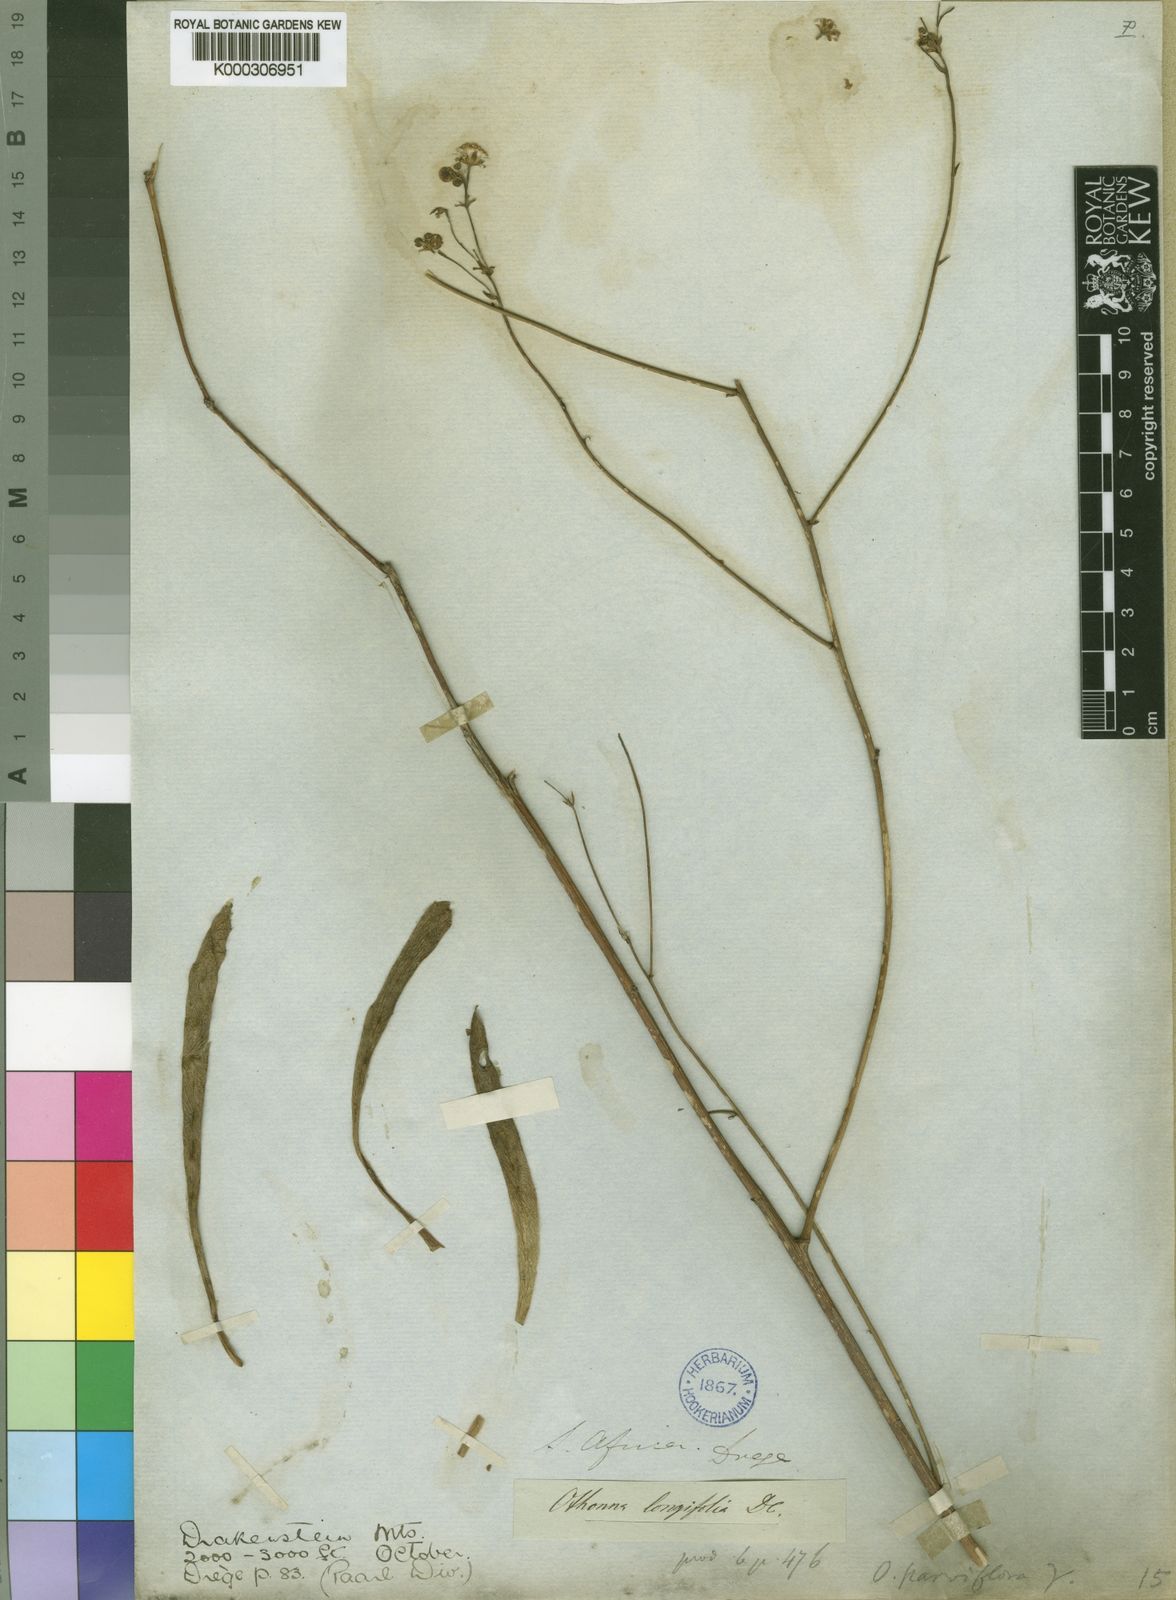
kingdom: Plantae
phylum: Tracheophyta
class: Magnoliopsida
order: Asterales
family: Asteraceae
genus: Othonna
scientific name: Othonna parviflora
